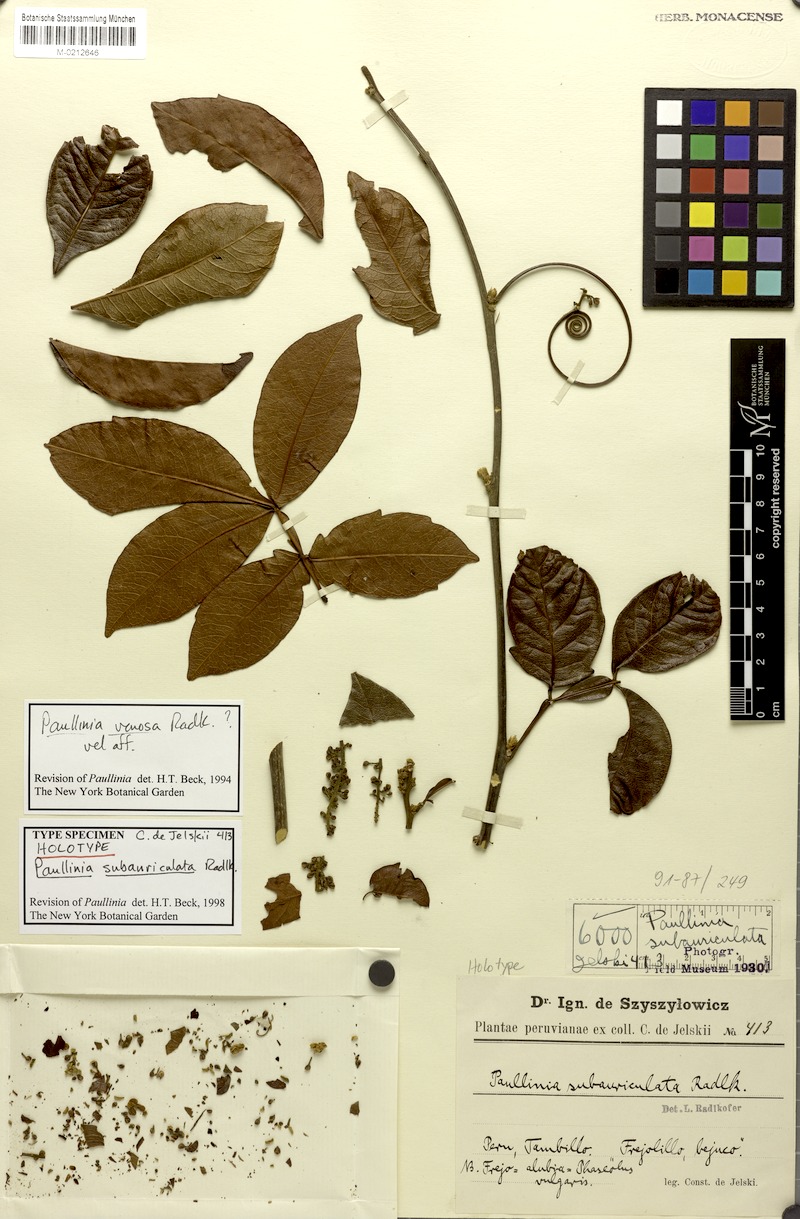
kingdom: Plantae
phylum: Tracheophyta
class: Magnoliopsida
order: Sapindales
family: Sapindaceae
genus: Paullinia
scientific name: Paullinia venosa
